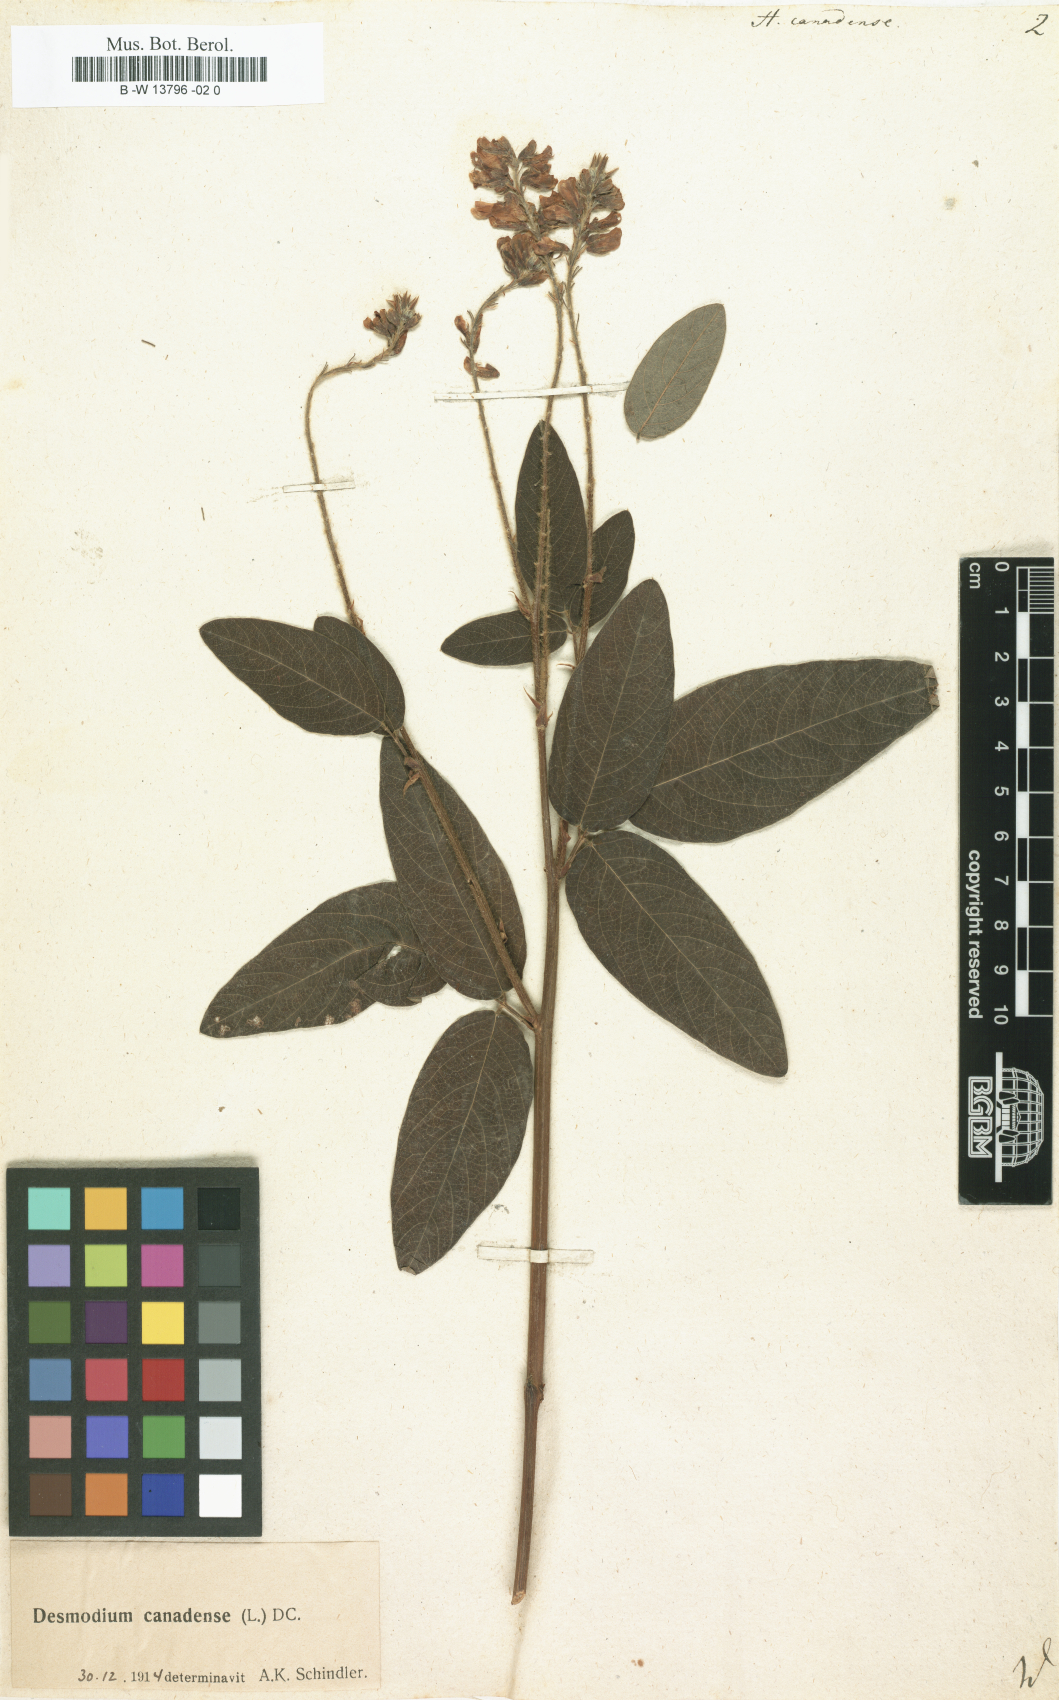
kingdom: Plantae
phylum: Tracheophyta
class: Magnoliopsida
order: Fabales
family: Fabaceae
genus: Desmodium
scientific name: Desmodium canadense
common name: Canada tick-trefoil
